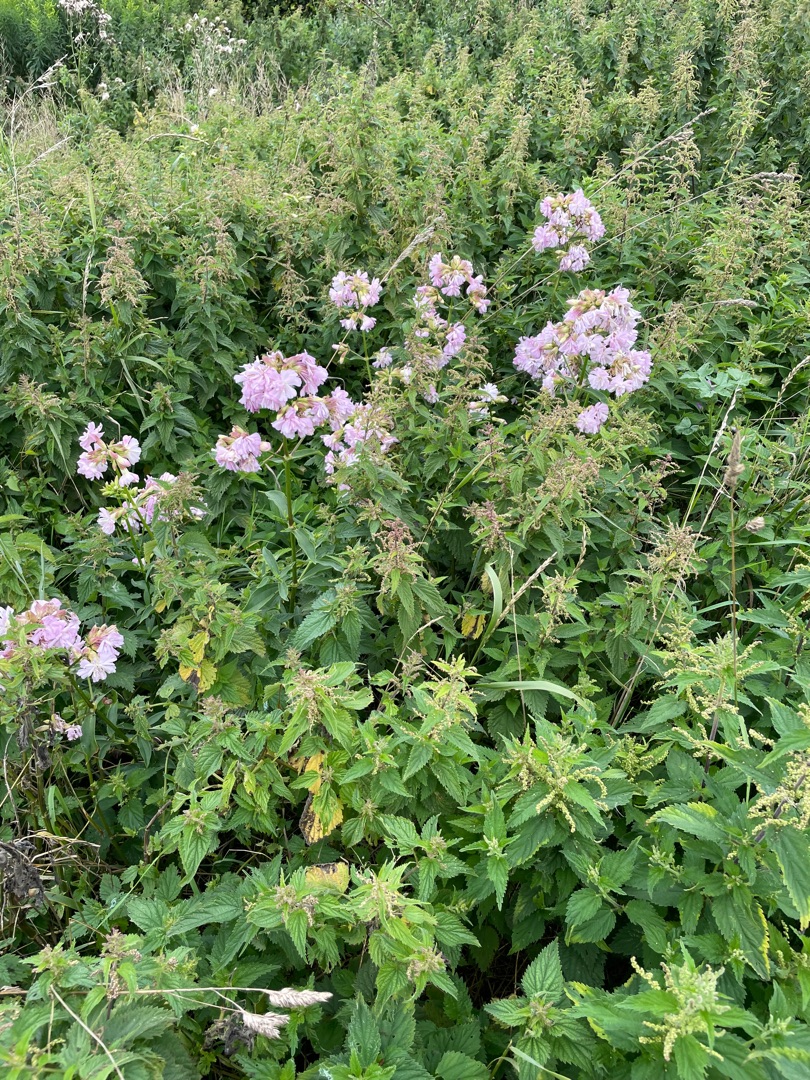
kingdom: Plantae
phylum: Tracheophyta
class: Magnoliopsida
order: Caryophyllales
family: Caryophyllaceae
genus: Saponaria
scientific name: Saponaria officinalis
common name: Sæbeurt
